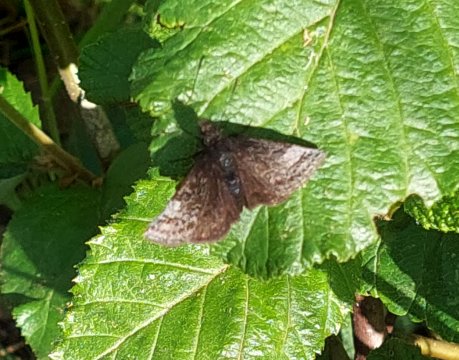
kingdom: Animalia
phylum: Arthropoda
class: Insecta
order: Lepidoptera
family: Hesperiidae
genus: Erynnis
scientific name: Erynnis icelus
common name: Dreamy Duskywing
